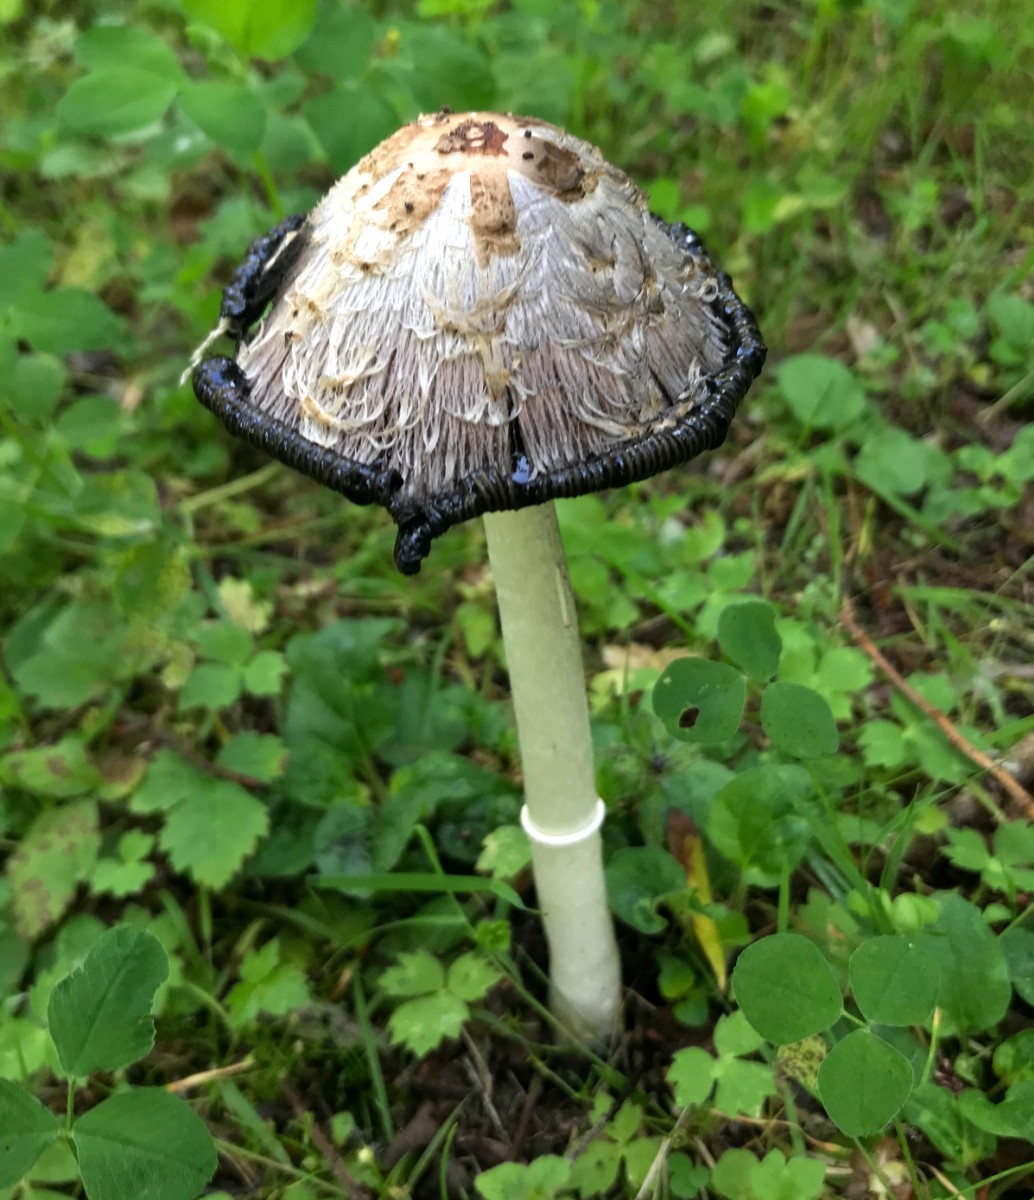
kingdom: Fungi
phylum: Basidiomycota
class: Agaricomycetes
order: Agaricales
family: Agaricaceae
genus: Coprinus
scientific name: Coprinus comatus
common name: stor parykhat
